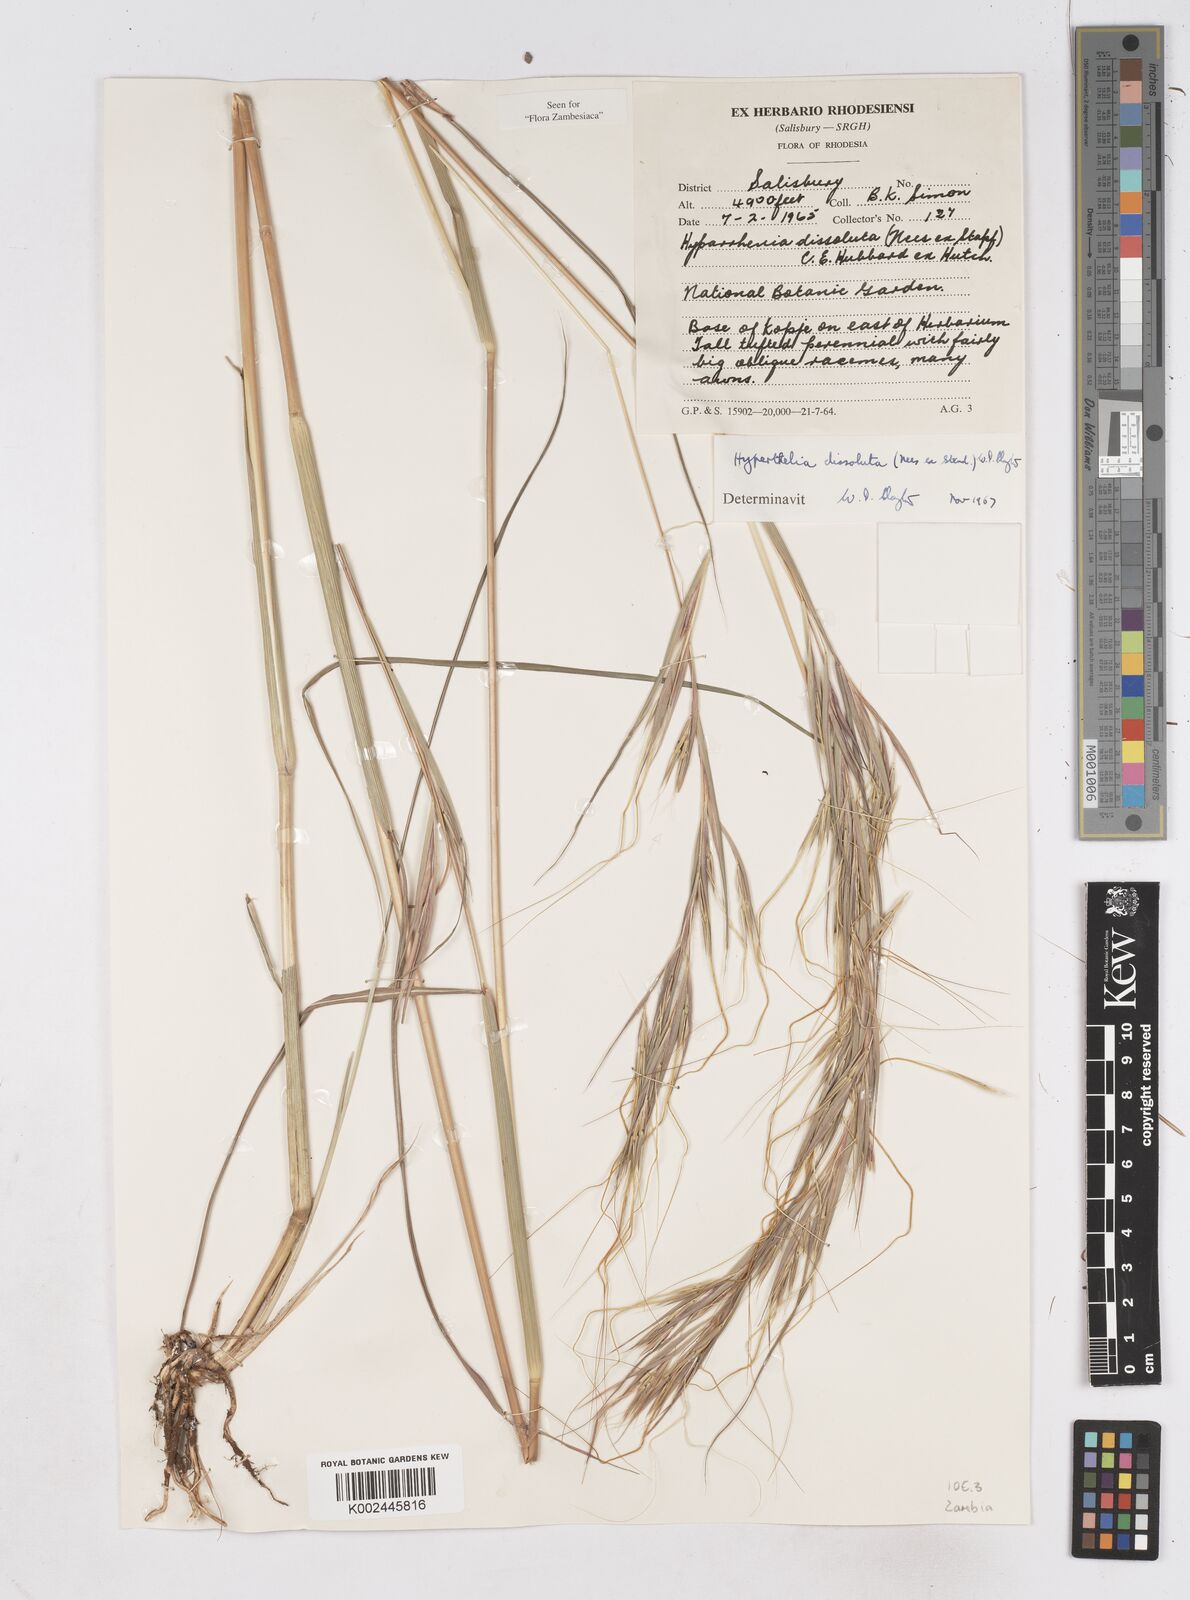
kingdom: Plantae
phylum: Tracheophyta
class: Liliopsida
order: Poales
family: Poaceae
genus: Hyperthelia
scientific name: Hyperthelia dissoluta
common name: Yellow thatching grass
